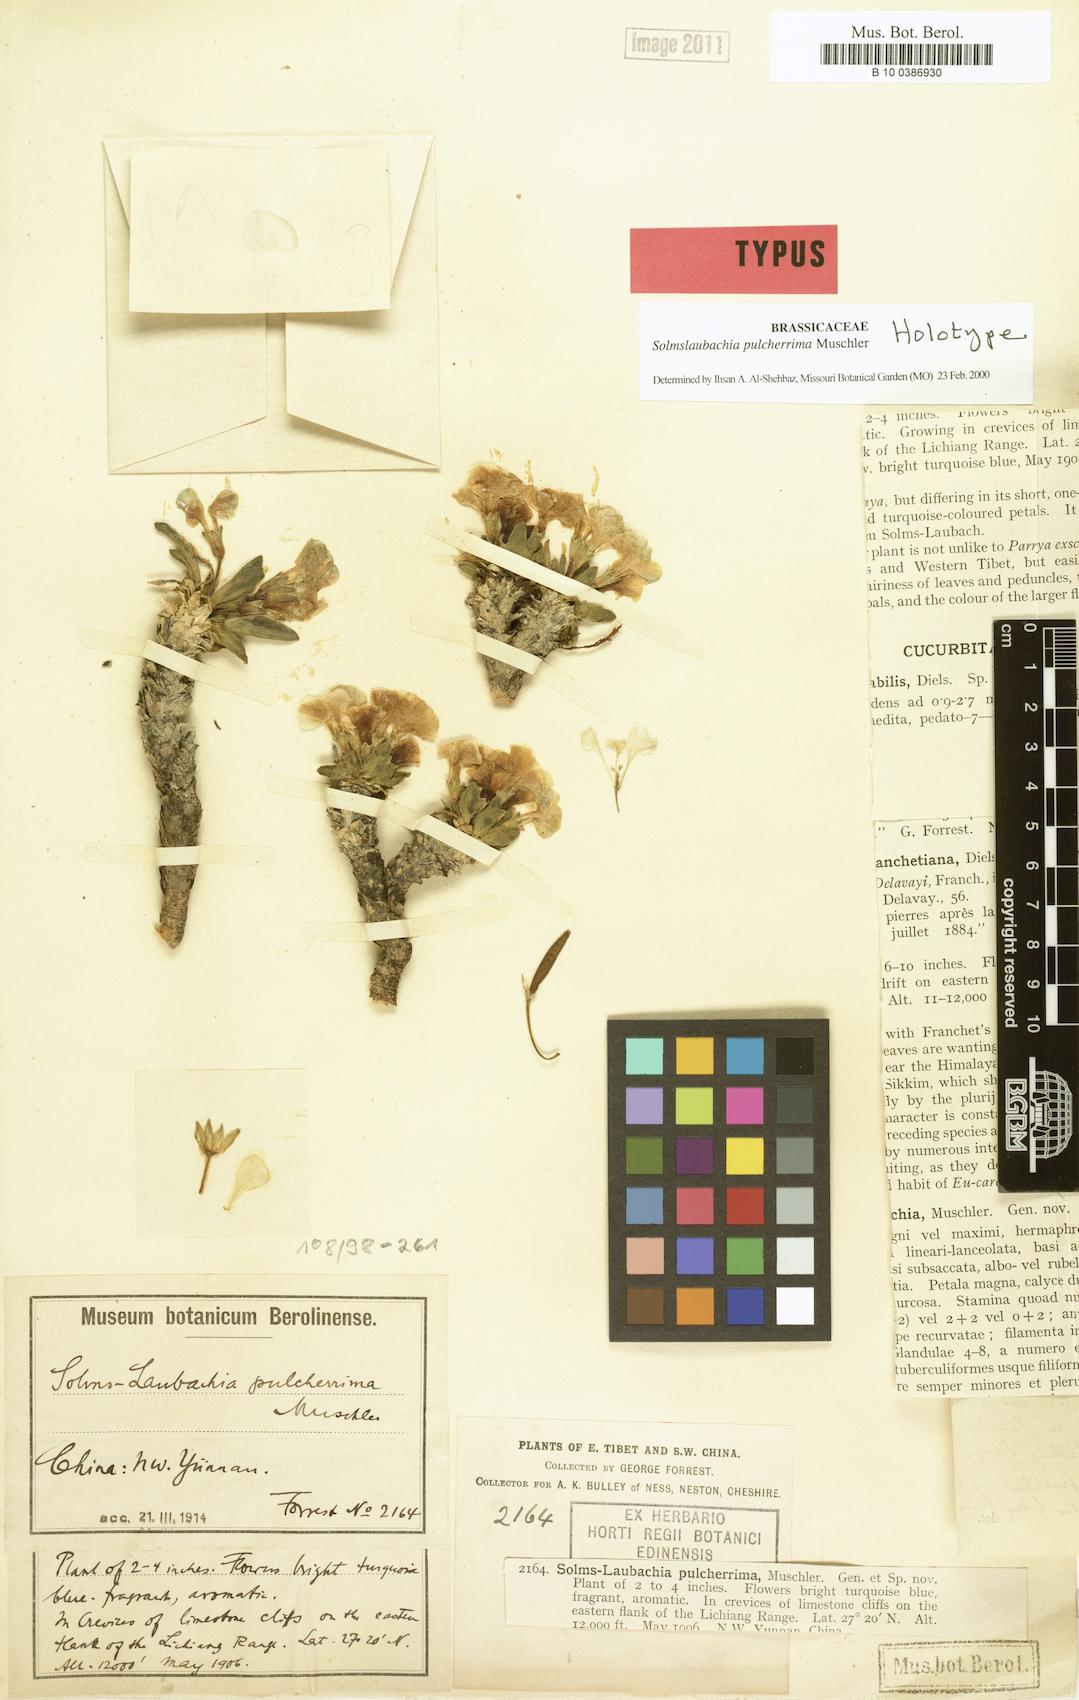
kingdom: Plantae
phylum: Tracheophyta
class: Magnoliopsida
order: Brassicales
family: Brassicaceae
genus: Solms-laubachia
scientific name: Solms-laubachia
